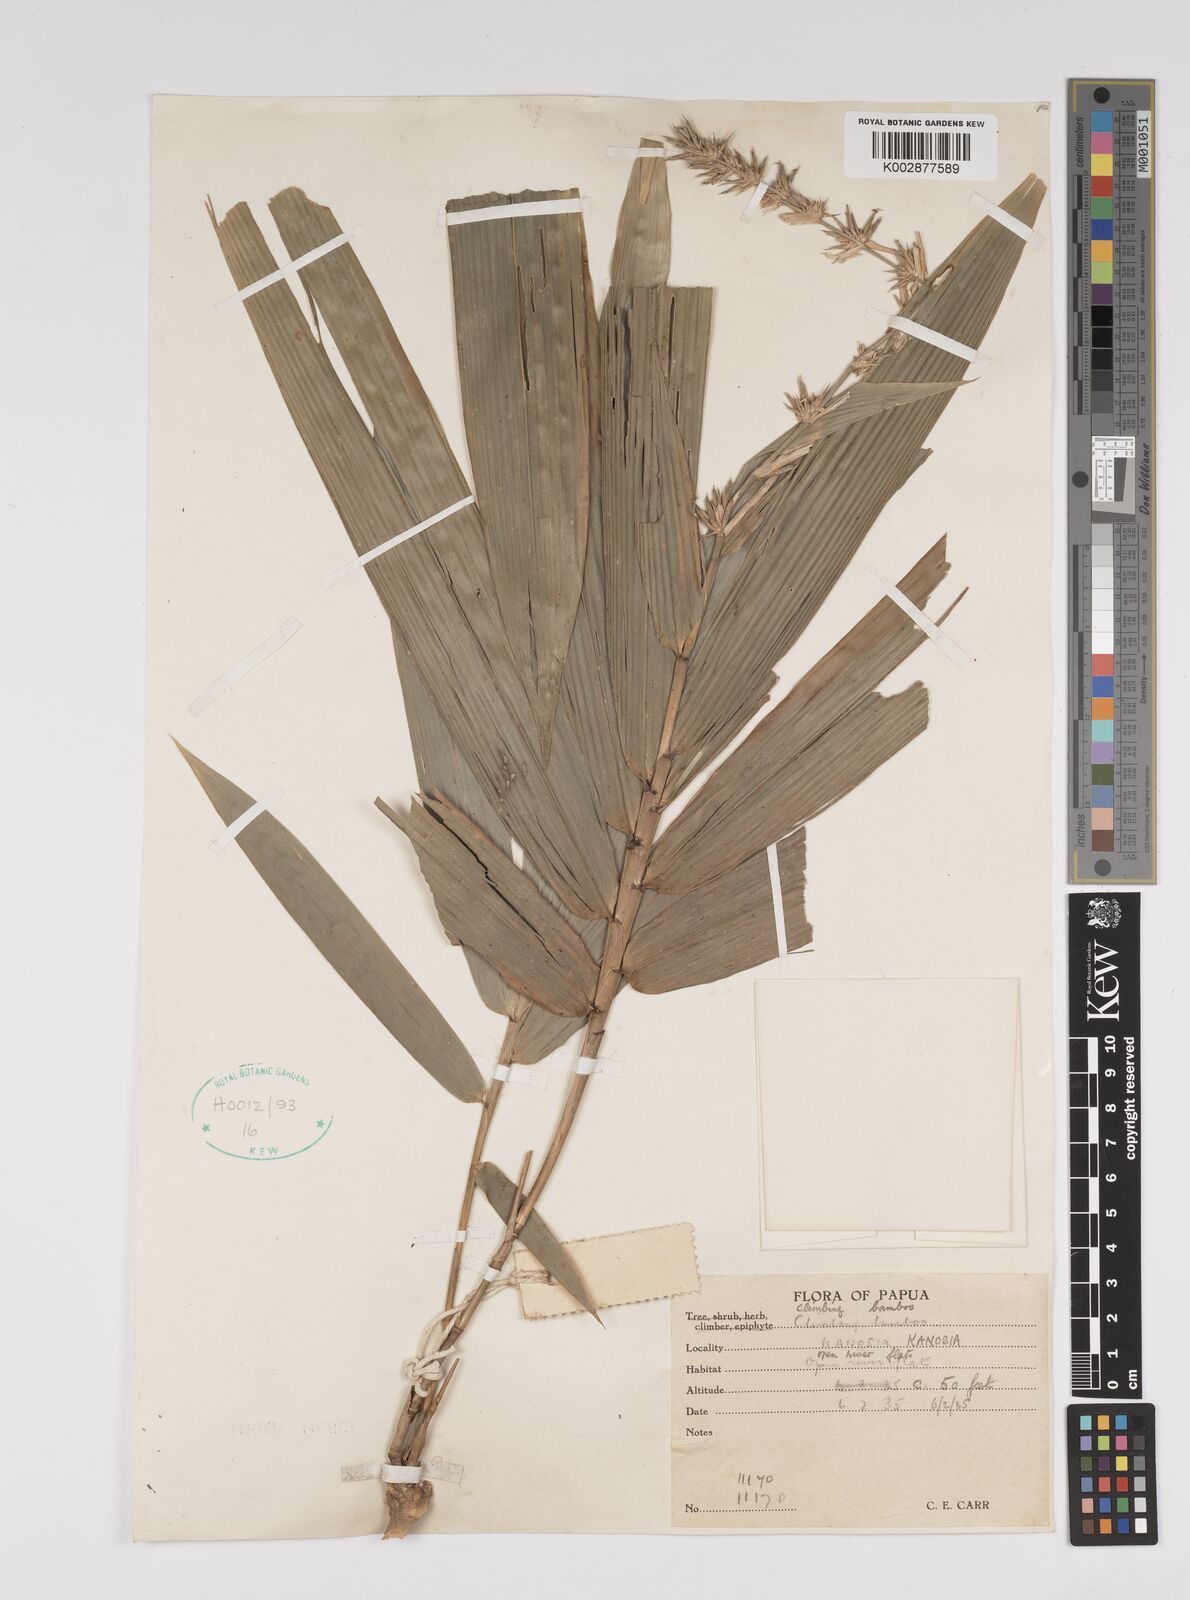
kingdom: Plantae
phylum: Tracheophyta
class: Liliopsida
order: Poales
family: Poaceae
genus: Bambusa
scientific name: Bambusa fruticosa
